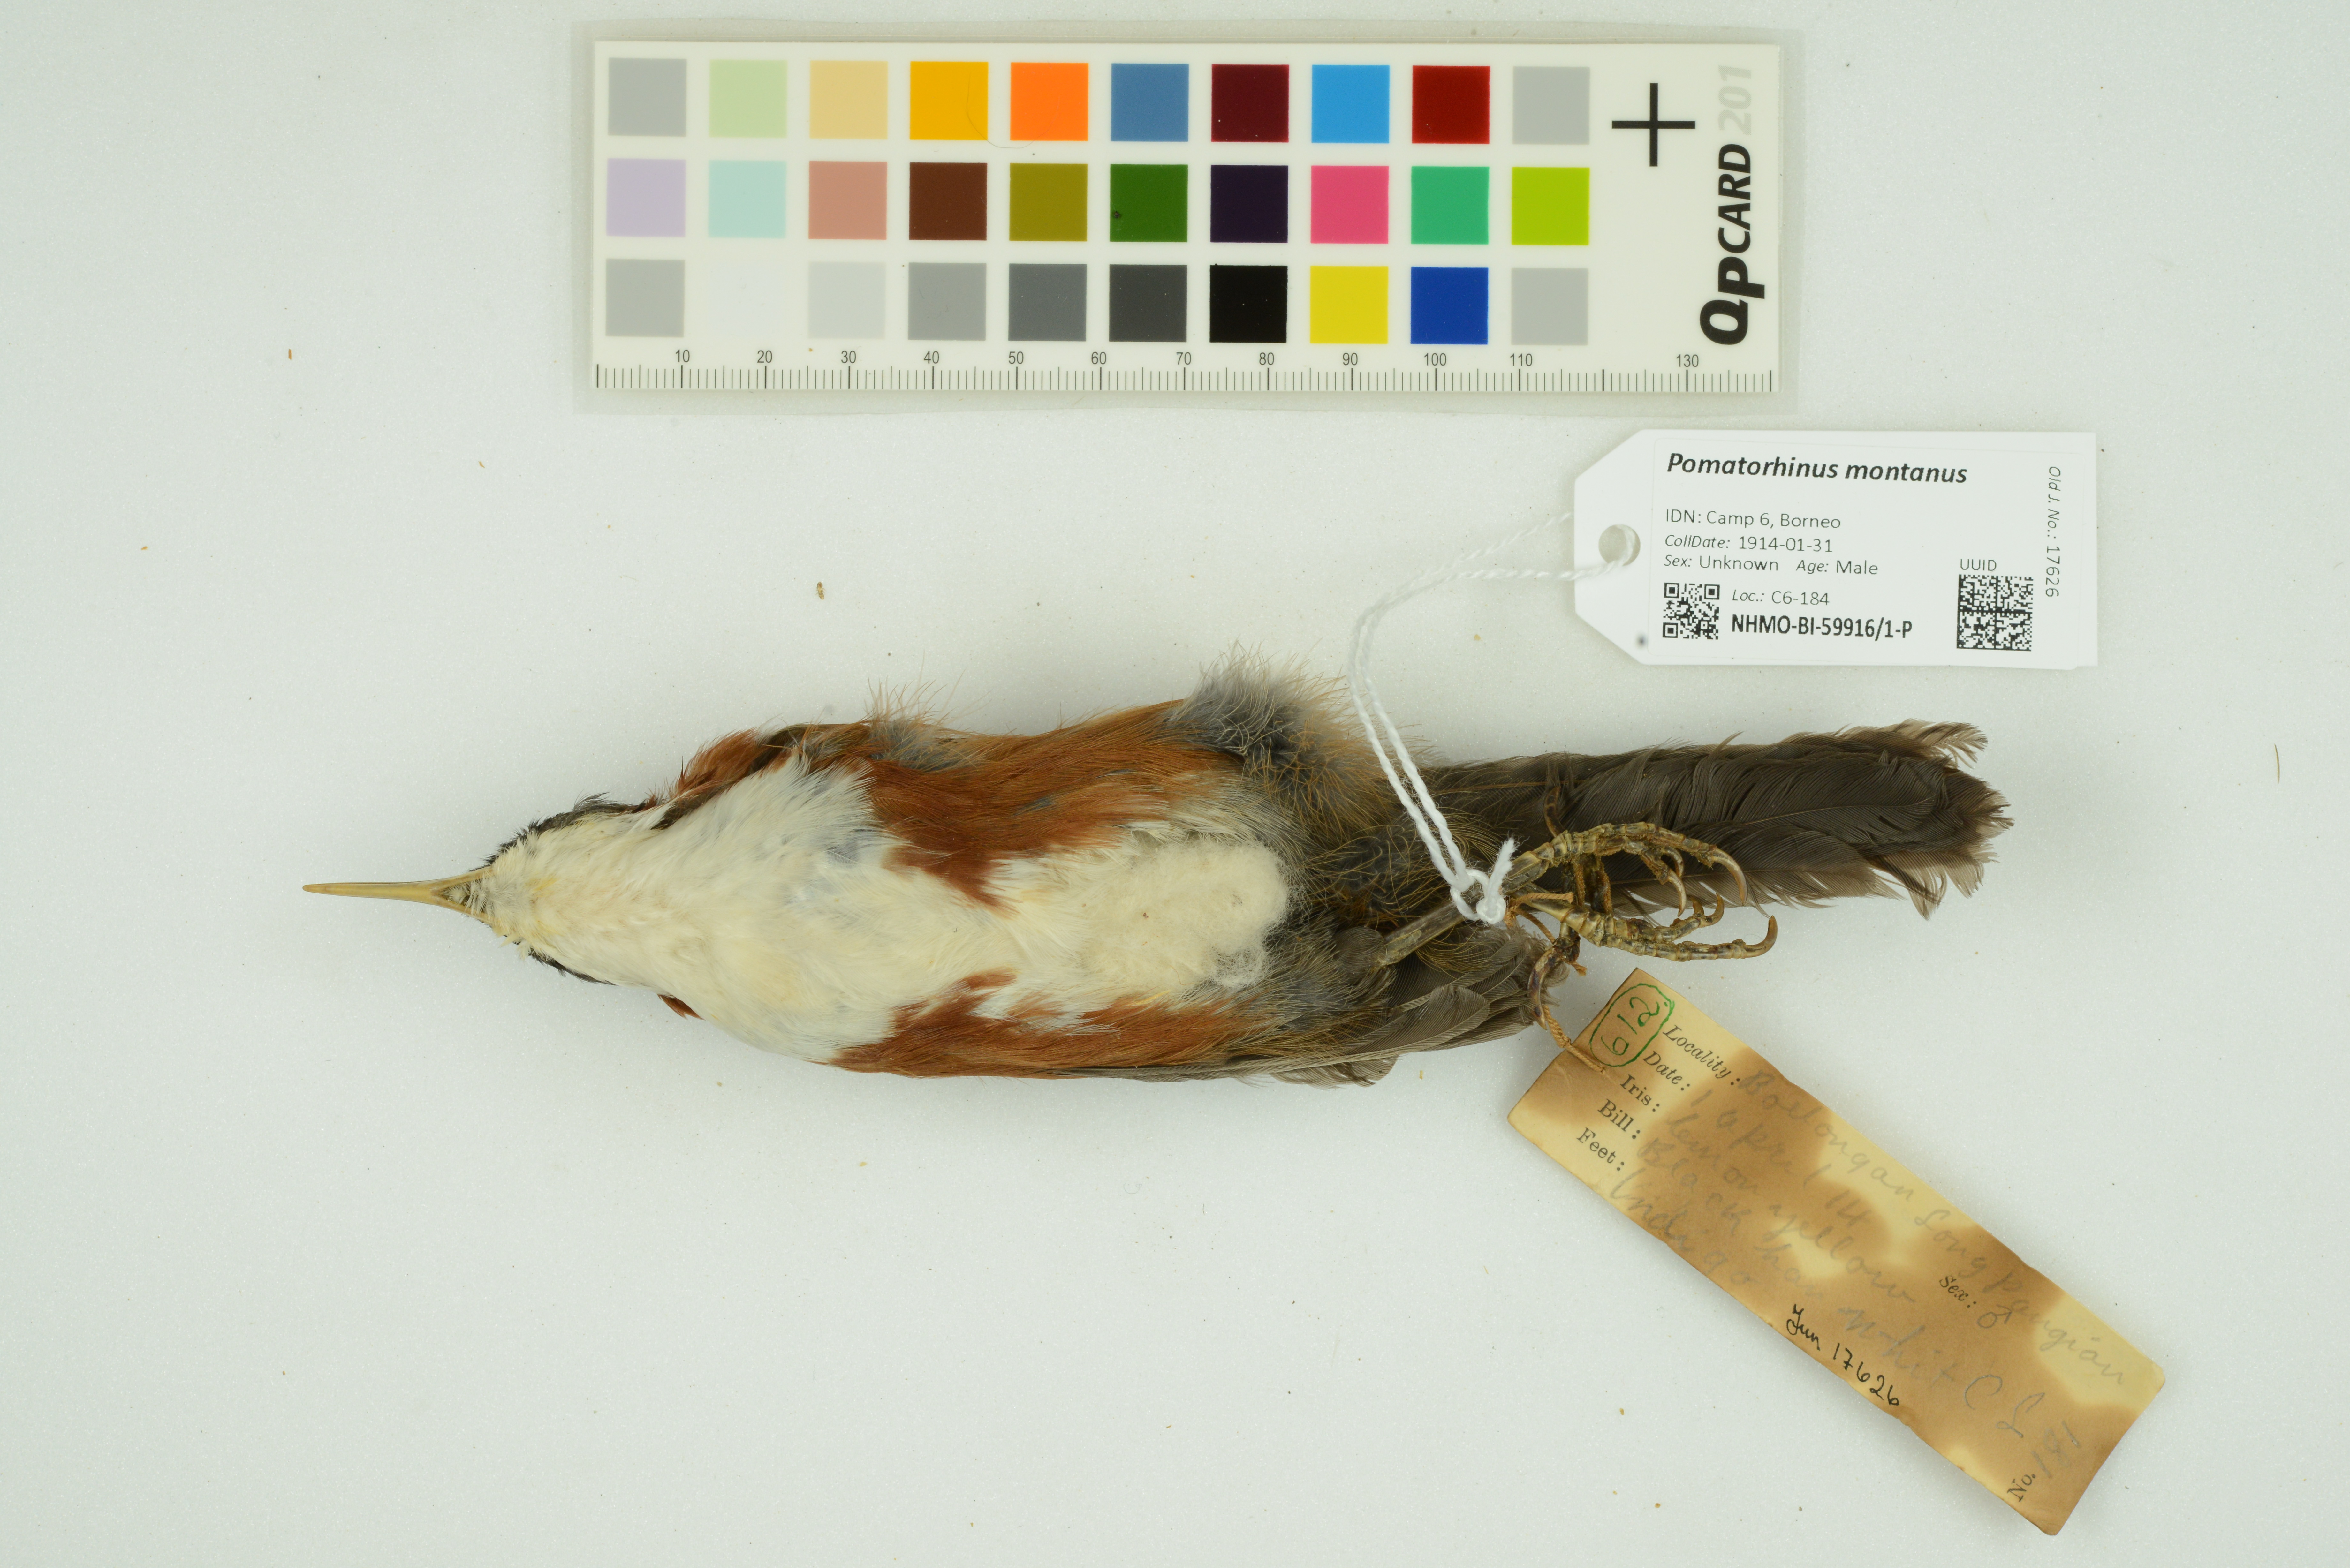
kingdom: Animalia
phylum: Chordata
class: Aves
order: Passeriformes
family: Timaliidae
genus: Pomatorhinus
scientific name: Pomatorhinus montanus
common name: Chestnut-backed scimitar babbler
